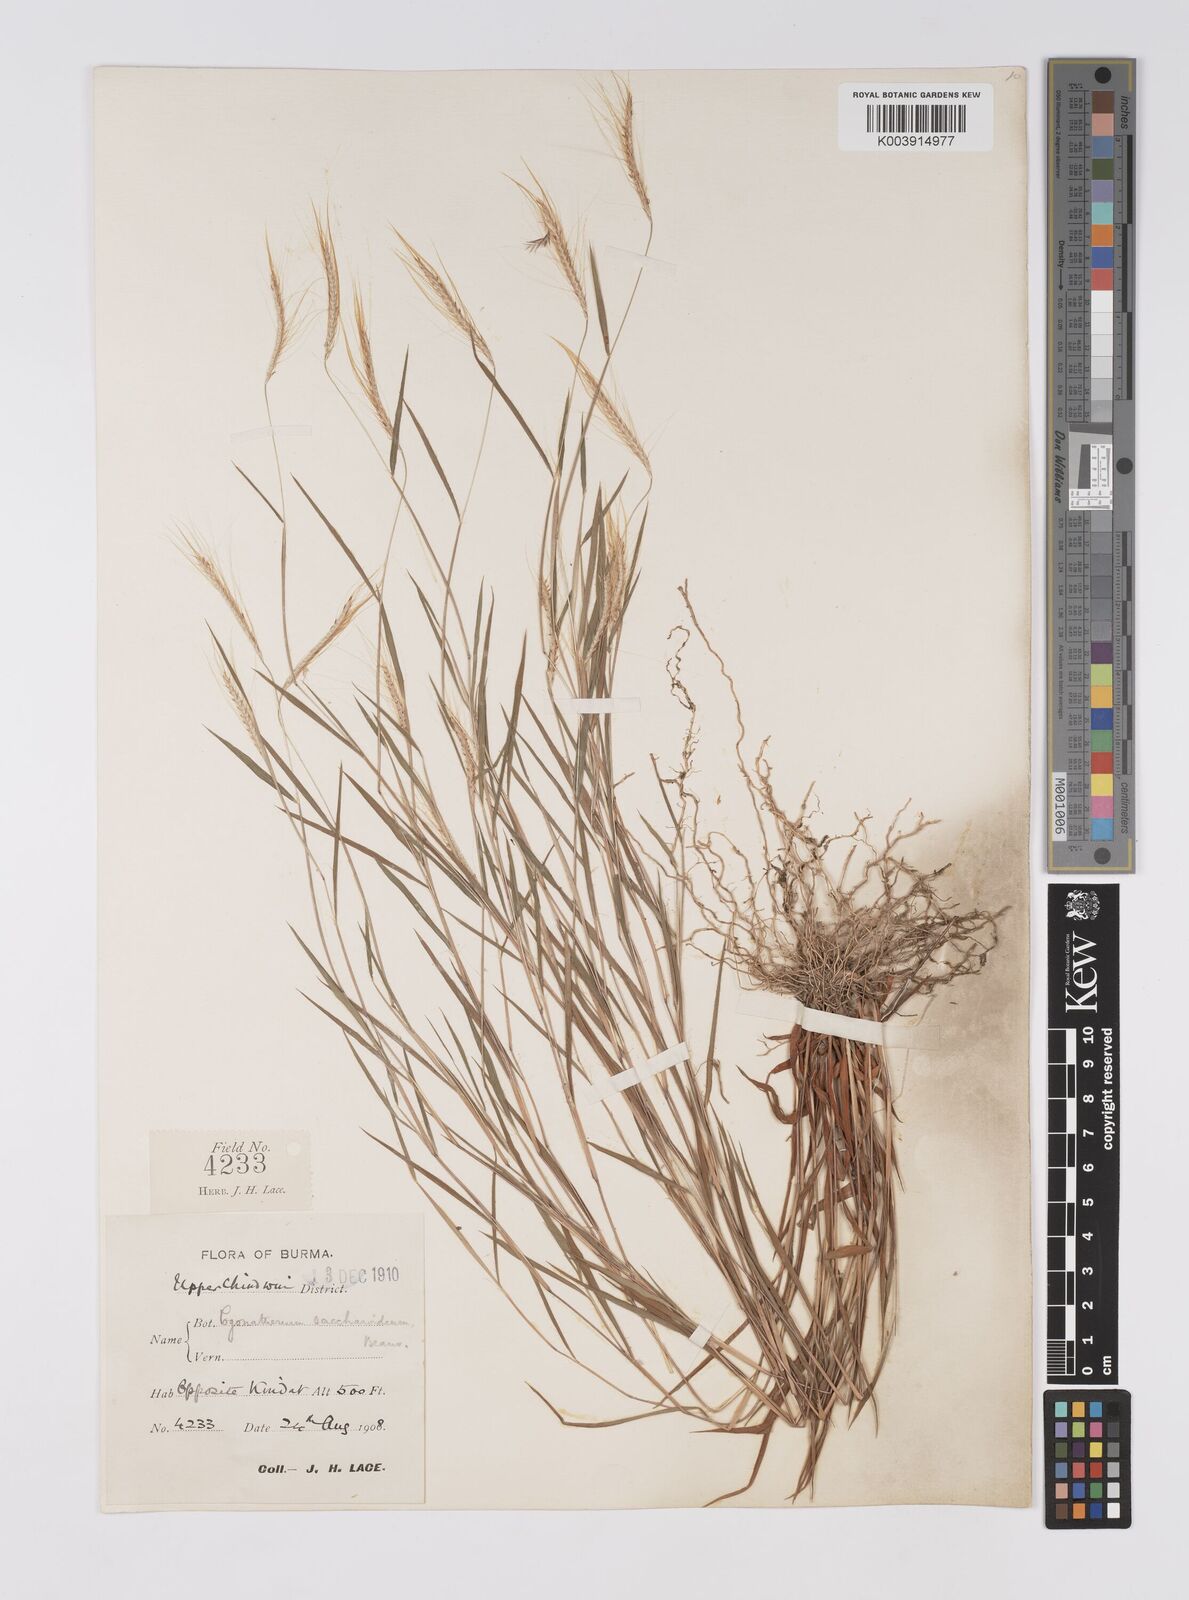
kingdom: Plantae
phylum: Tracheophyta
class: Liliopsida
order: Poales
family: Poaceae
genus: Pogonatherum
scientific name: Pogonatherum paniceum
